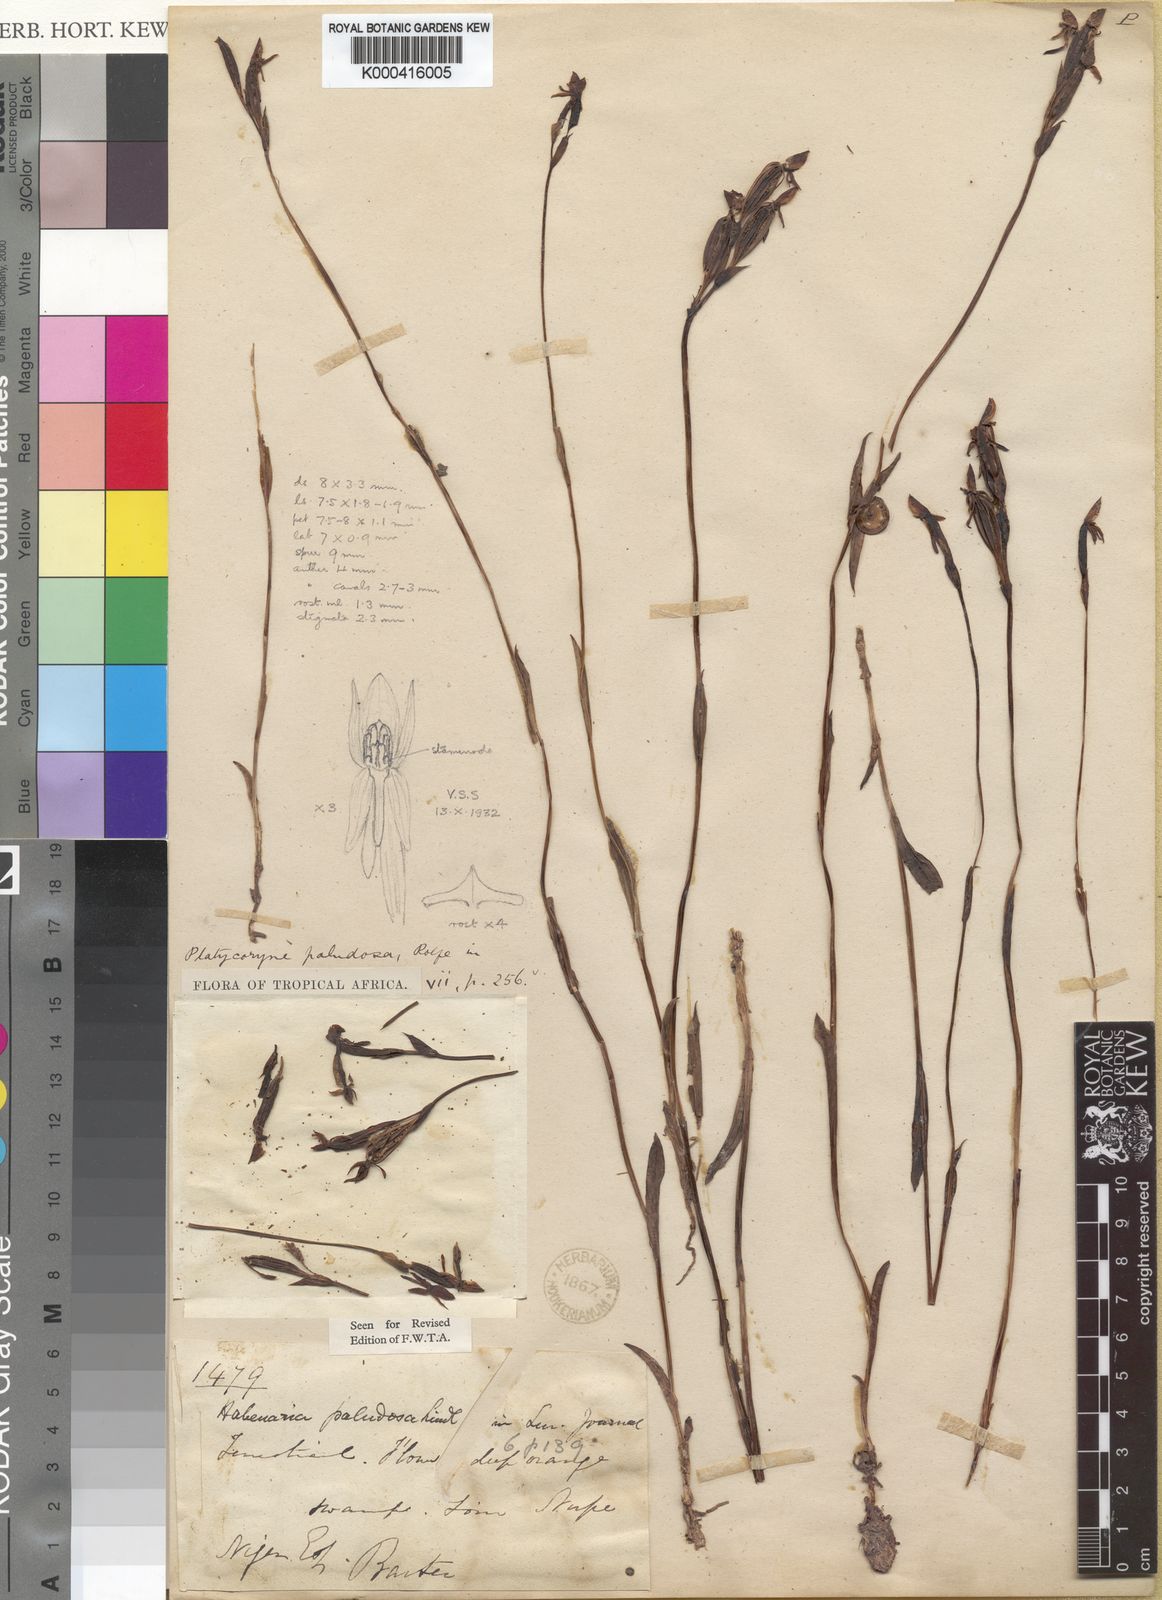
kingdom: Plantae
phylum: Tracheophyta
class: Liliopsida
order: Asparagales
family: Orchidaceae
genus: Platycoryne
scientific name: Platycoryne paludosa
